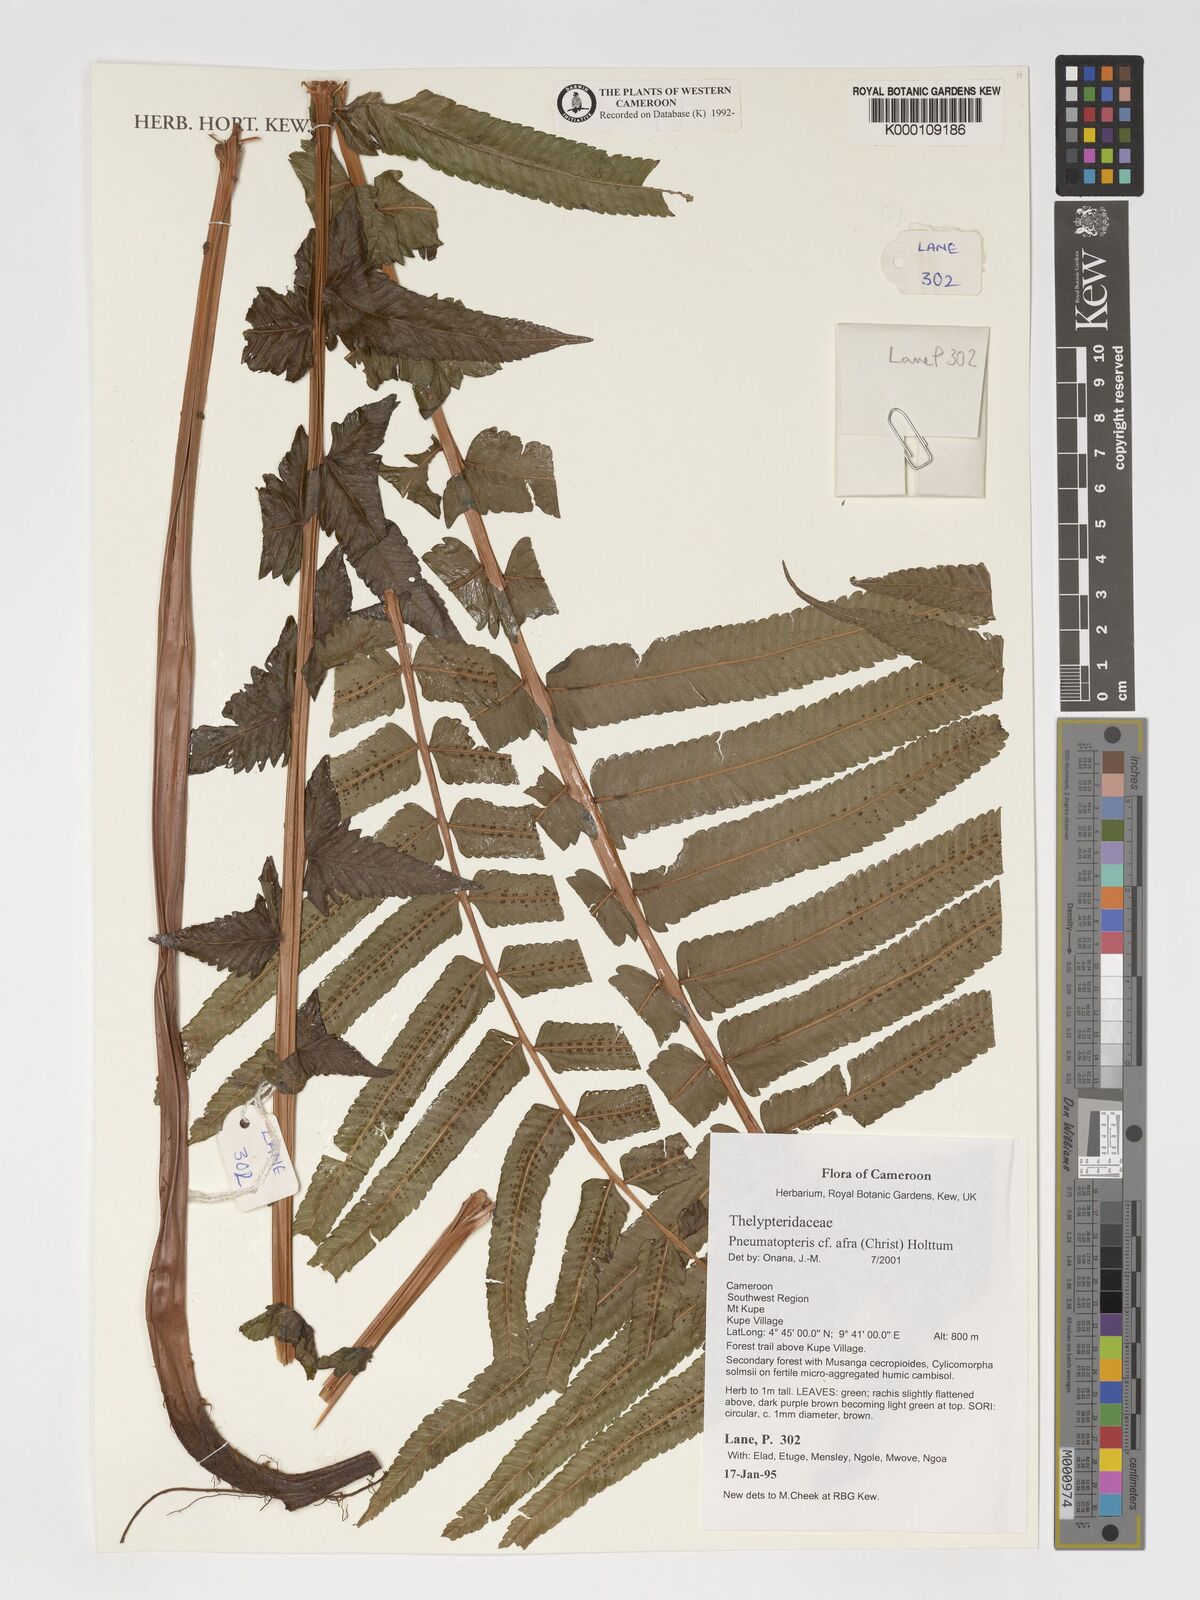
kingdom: Plantae
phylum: Tracheophyta
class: Polypodiopsida
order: Polypodiales
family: Thelypteridaceae
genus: Abacopteris
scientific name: Abacopteris afra
